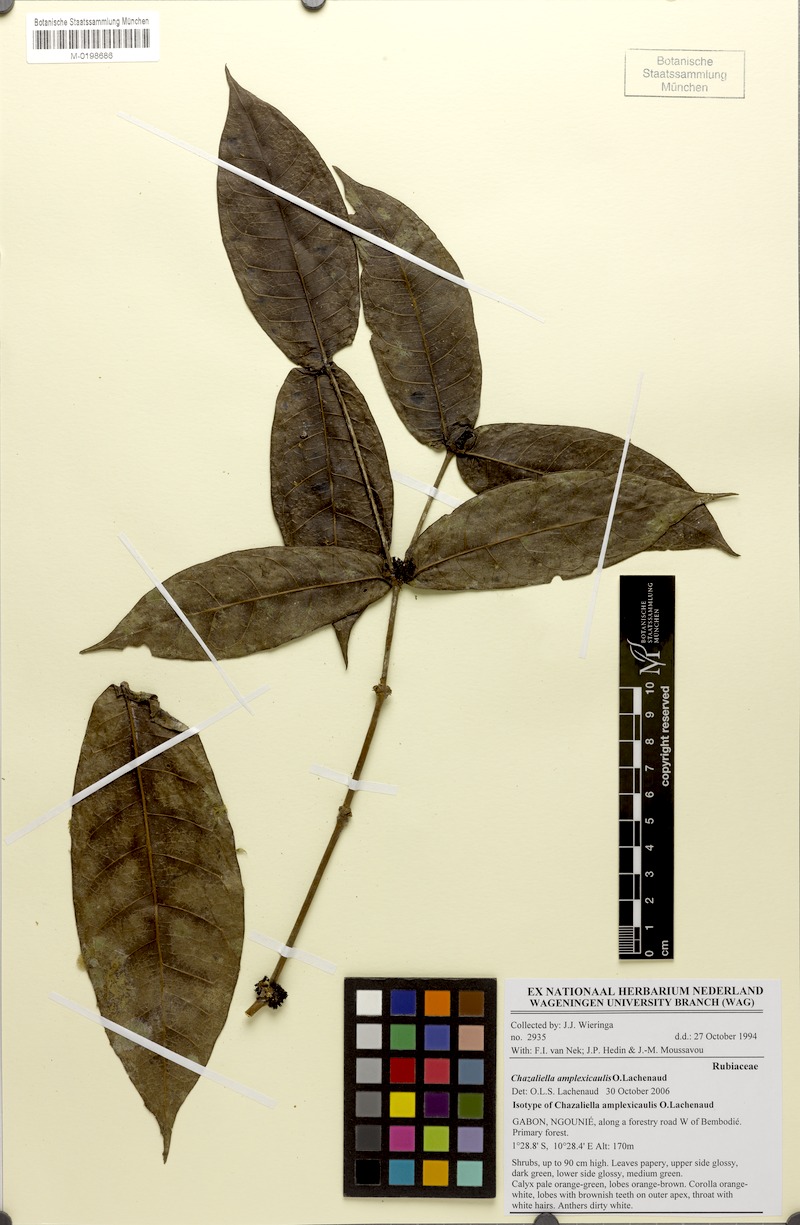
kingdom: Plantae
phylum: Tracheophyta
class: Magnoliopsida
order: Gentianales
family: Rubiaceae
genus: Eumachia
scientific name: Eumachia
